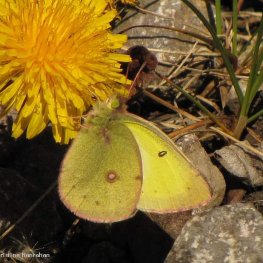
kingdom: Animalia
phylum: Arthropoda
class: Insecta
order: Lepidoptera
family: Pieridae
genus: Colias
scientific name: Colias philodice
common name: Clouded Sulphur
